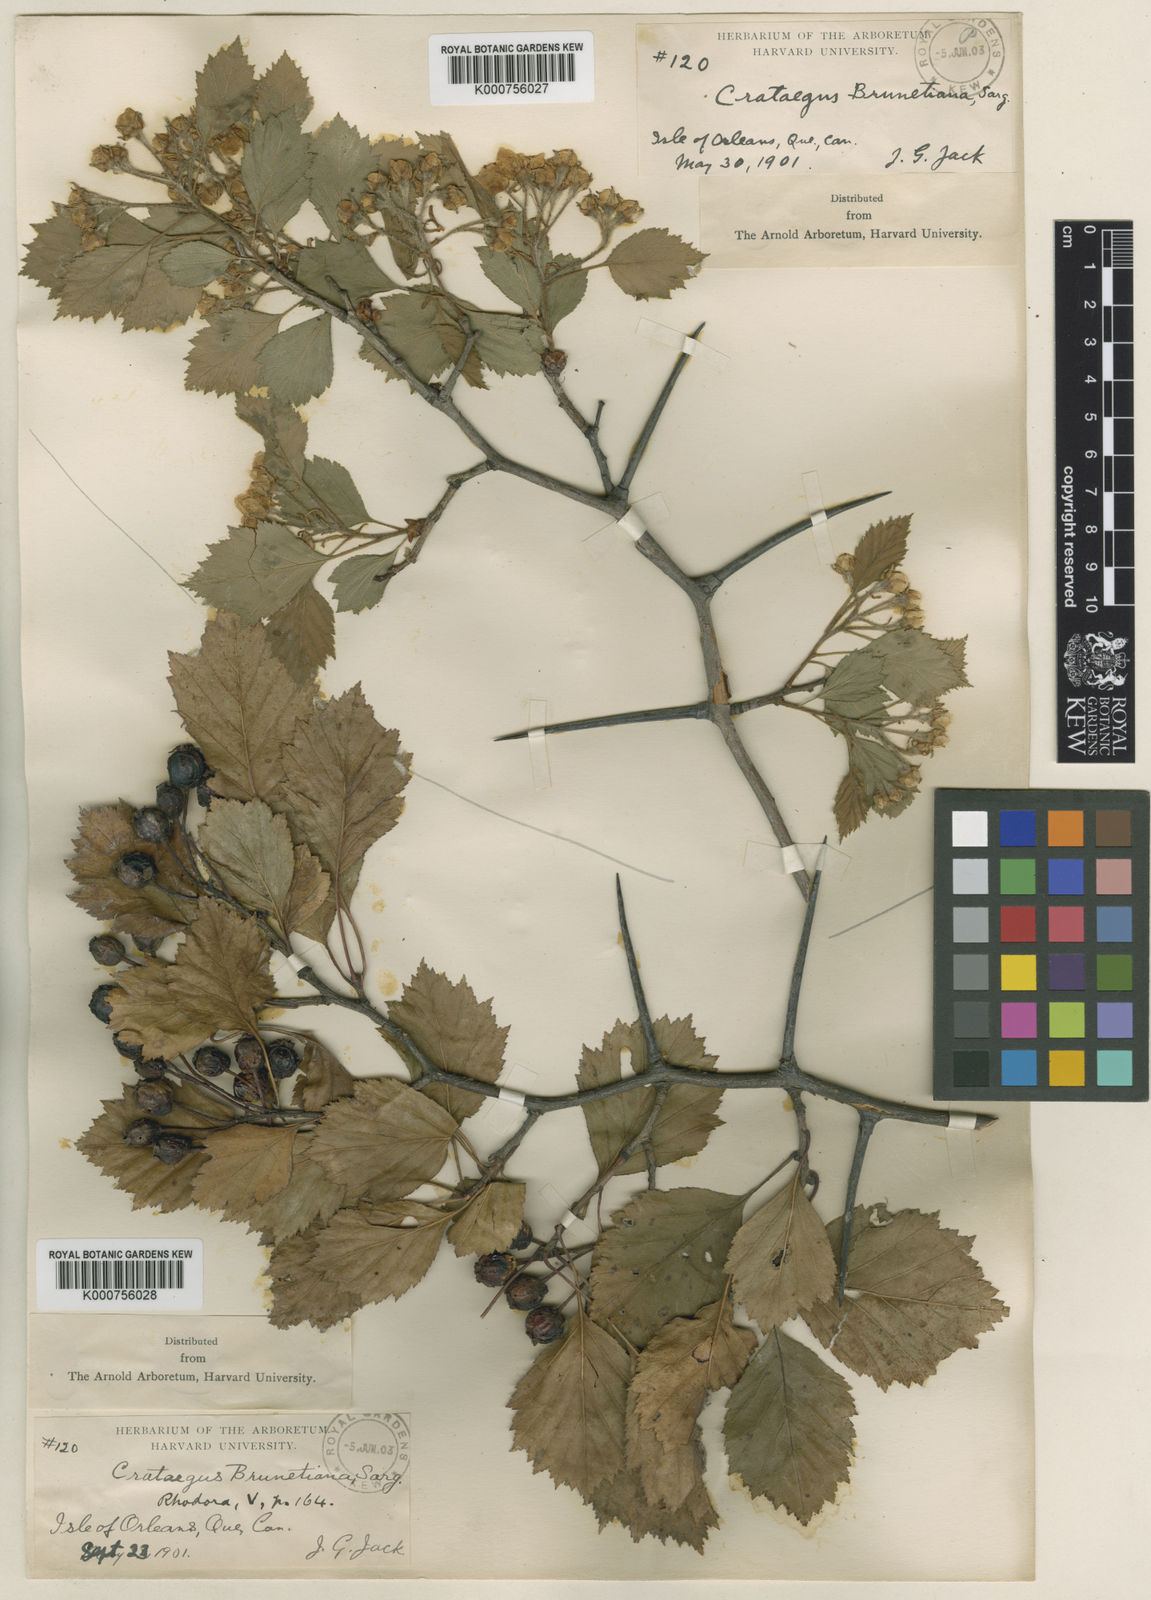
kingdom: Plantae
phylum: Tracheophyta
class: Magnoliopsida
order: Rosales
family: Rosaceae
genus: Crataegus
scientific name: Crataegus chrysocarpa
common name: Fire-berry hawthorn
